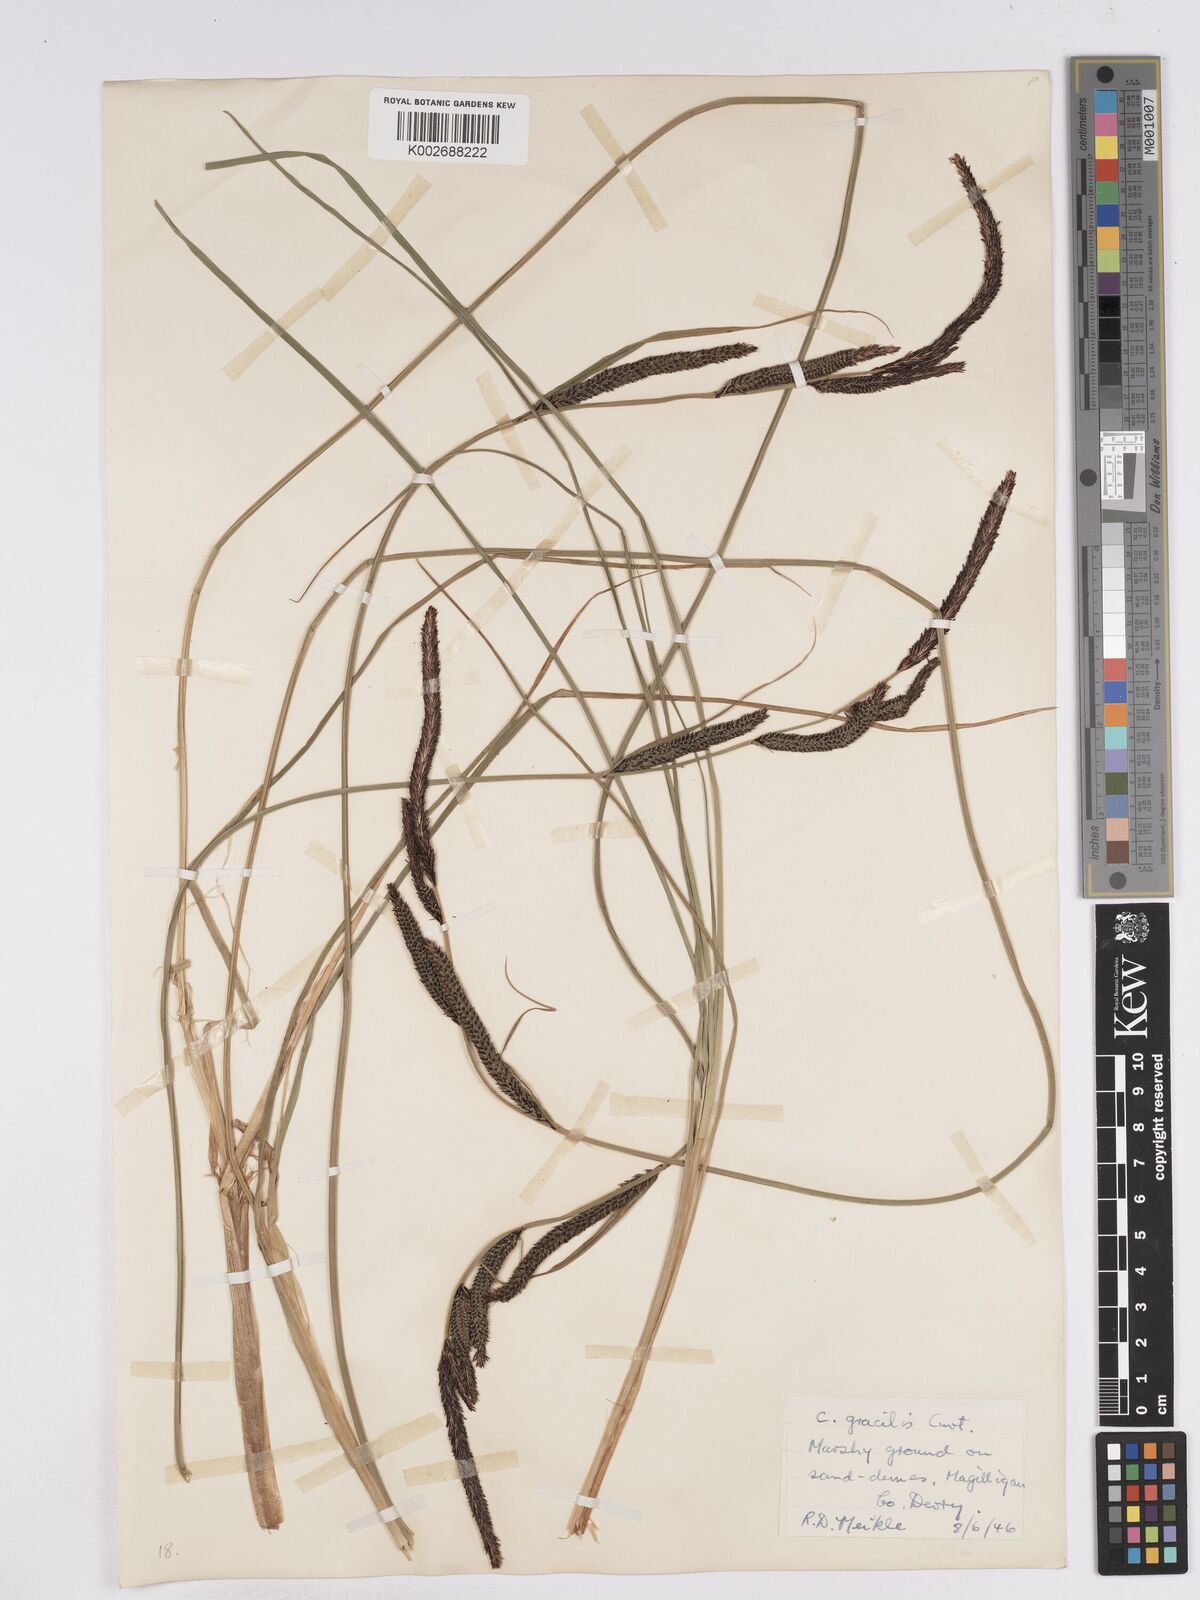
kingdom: Plantae
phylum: Tracheophyta
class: Liliopsida
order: Poales
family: Cyperaceae
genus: Carex
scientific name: Carex elata
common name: Tufted sedge
